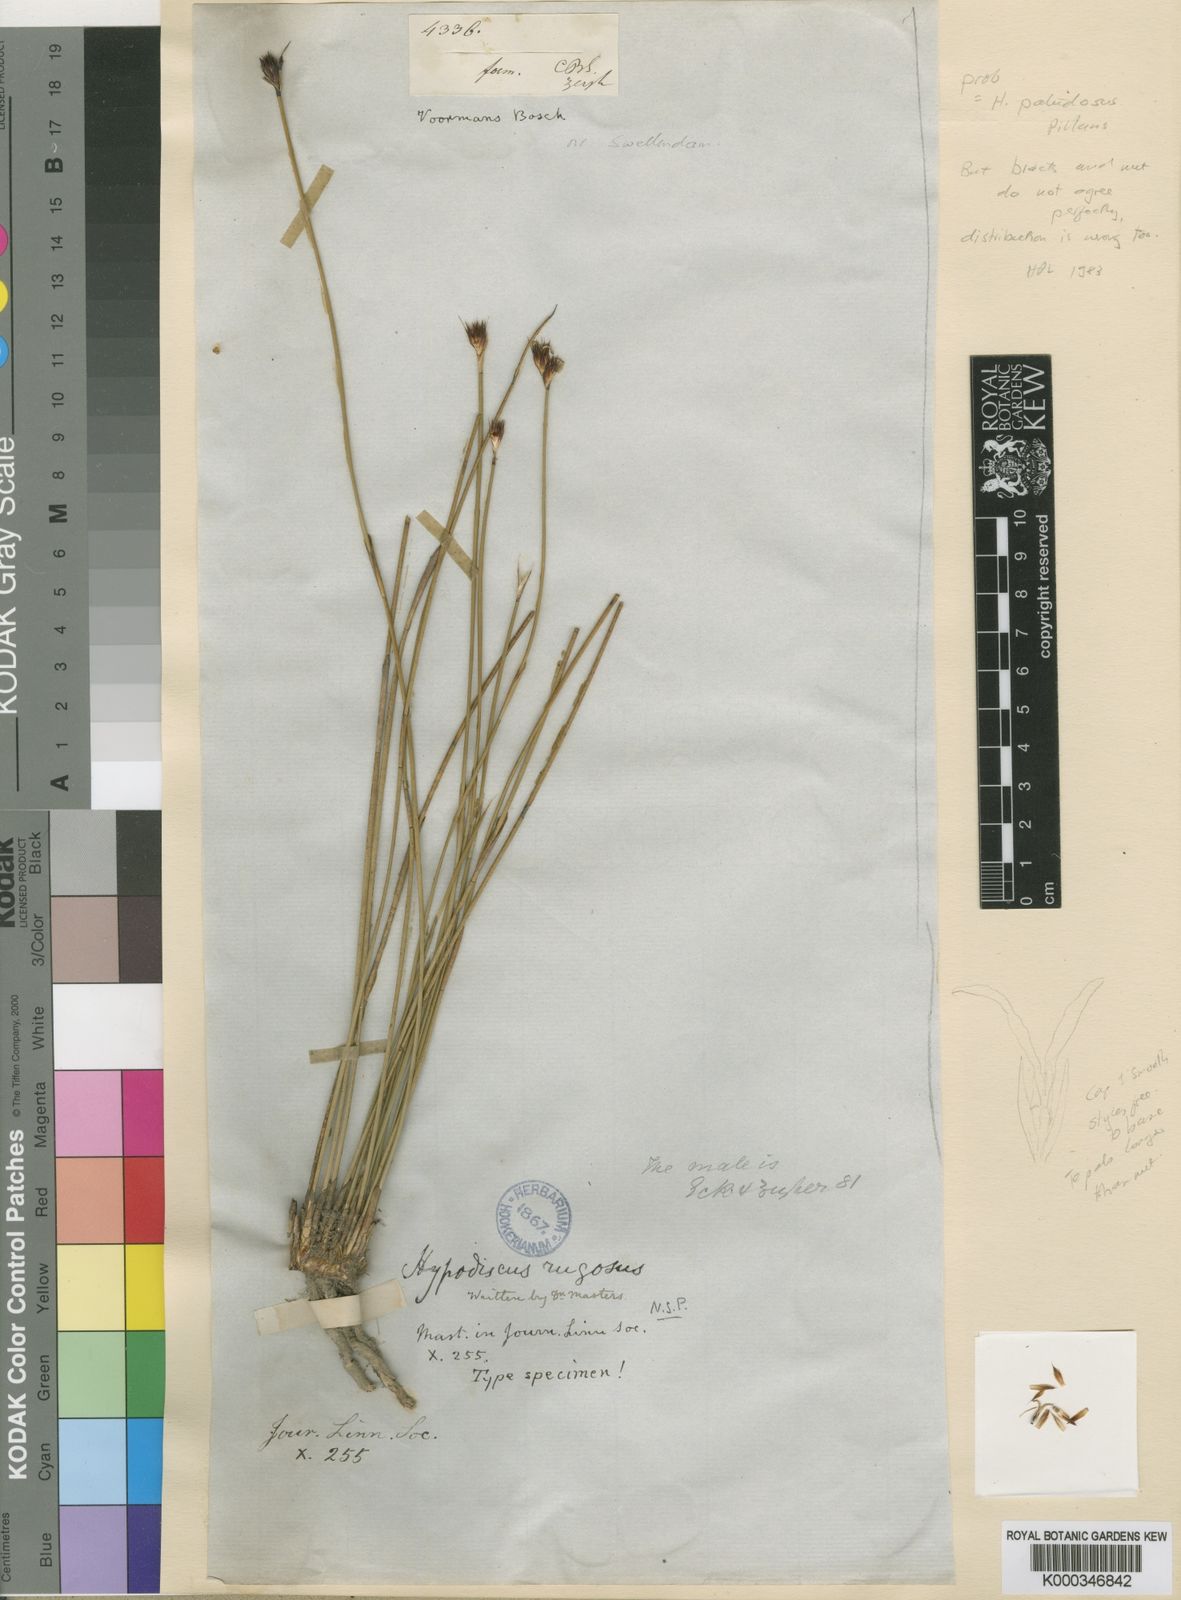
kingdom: Plantae
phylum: Tracheophyta
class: Liliopsida
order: Poales
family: Restionaceae
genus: Hypodiscus
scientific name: Hypodiscus
